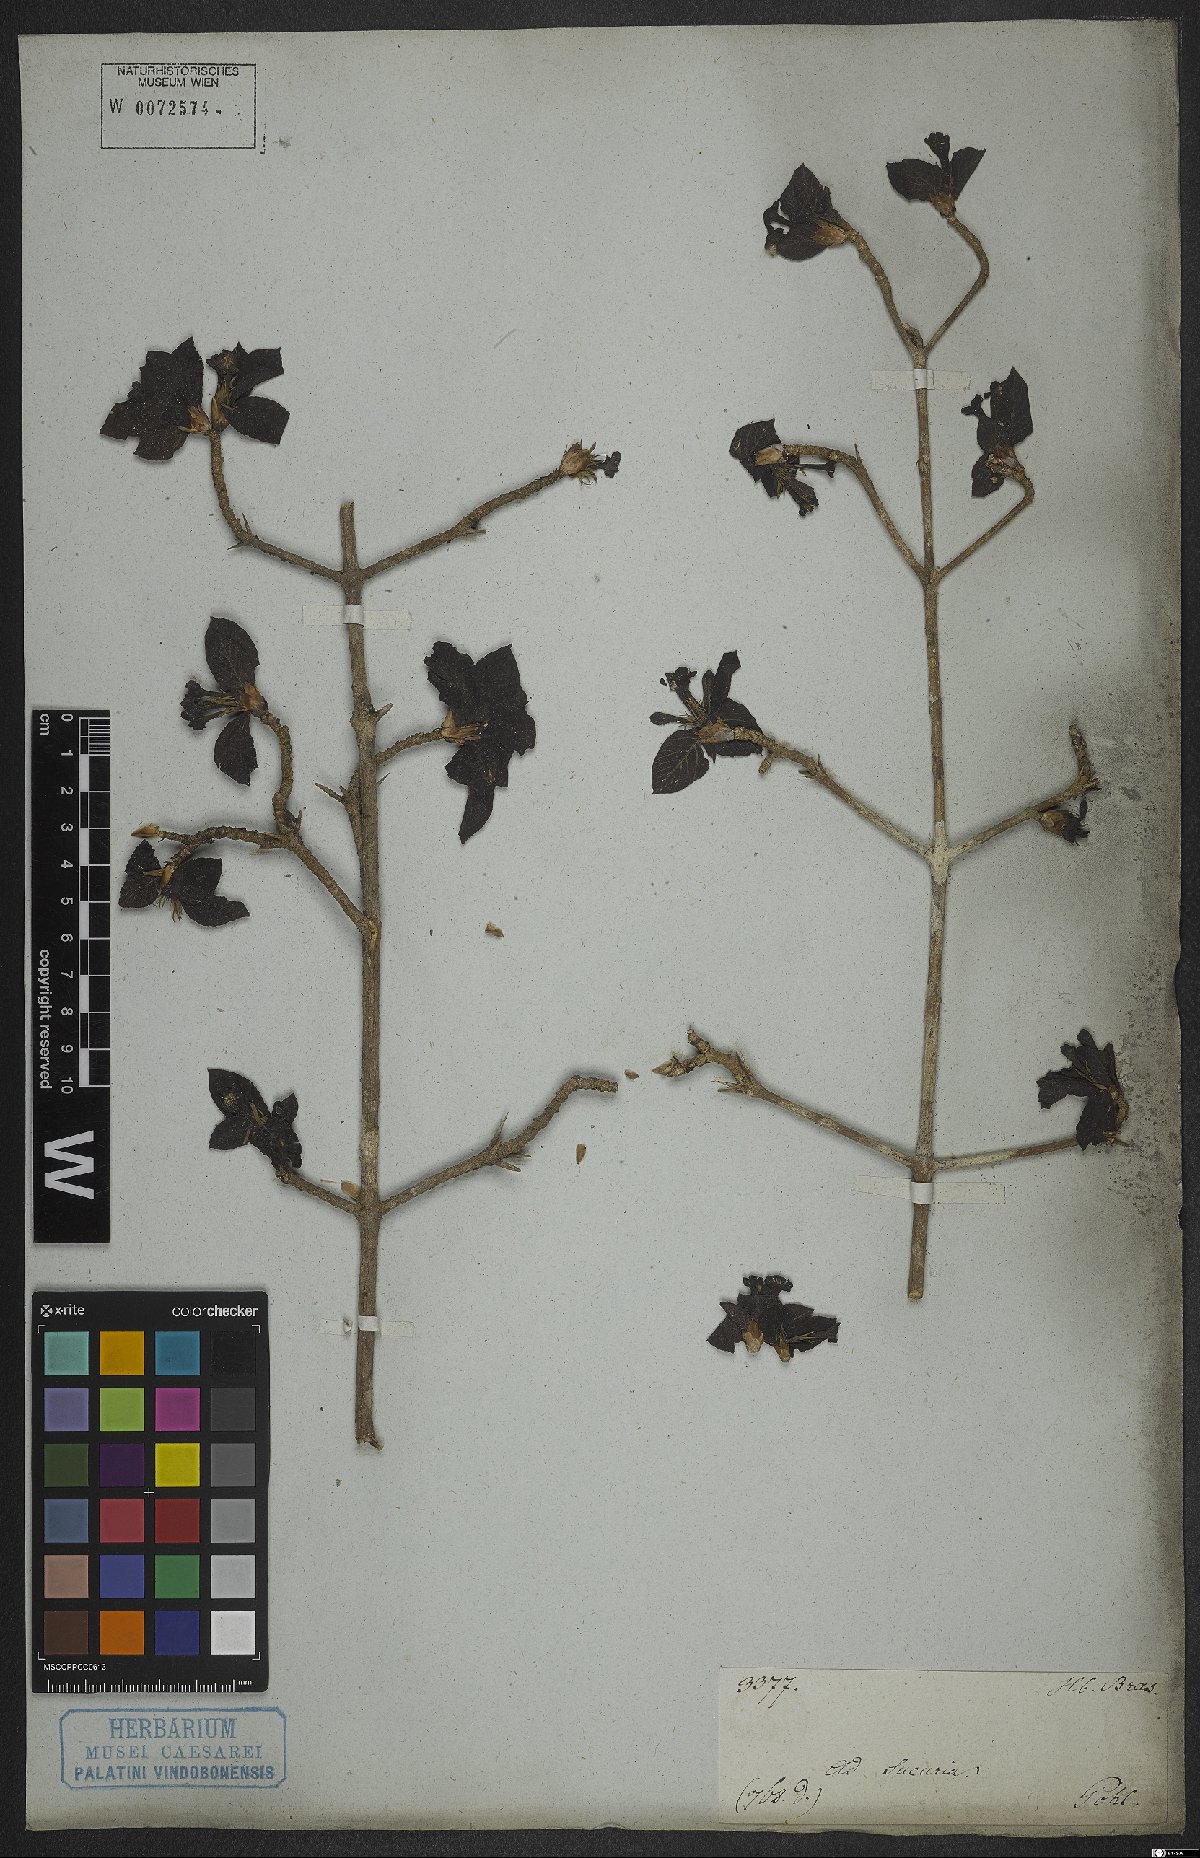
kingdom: Plantae
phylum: Tracheophyta
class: Magnoliopsida
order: Gentianales
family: Rubiaceae
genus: Randia
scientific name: Randia
